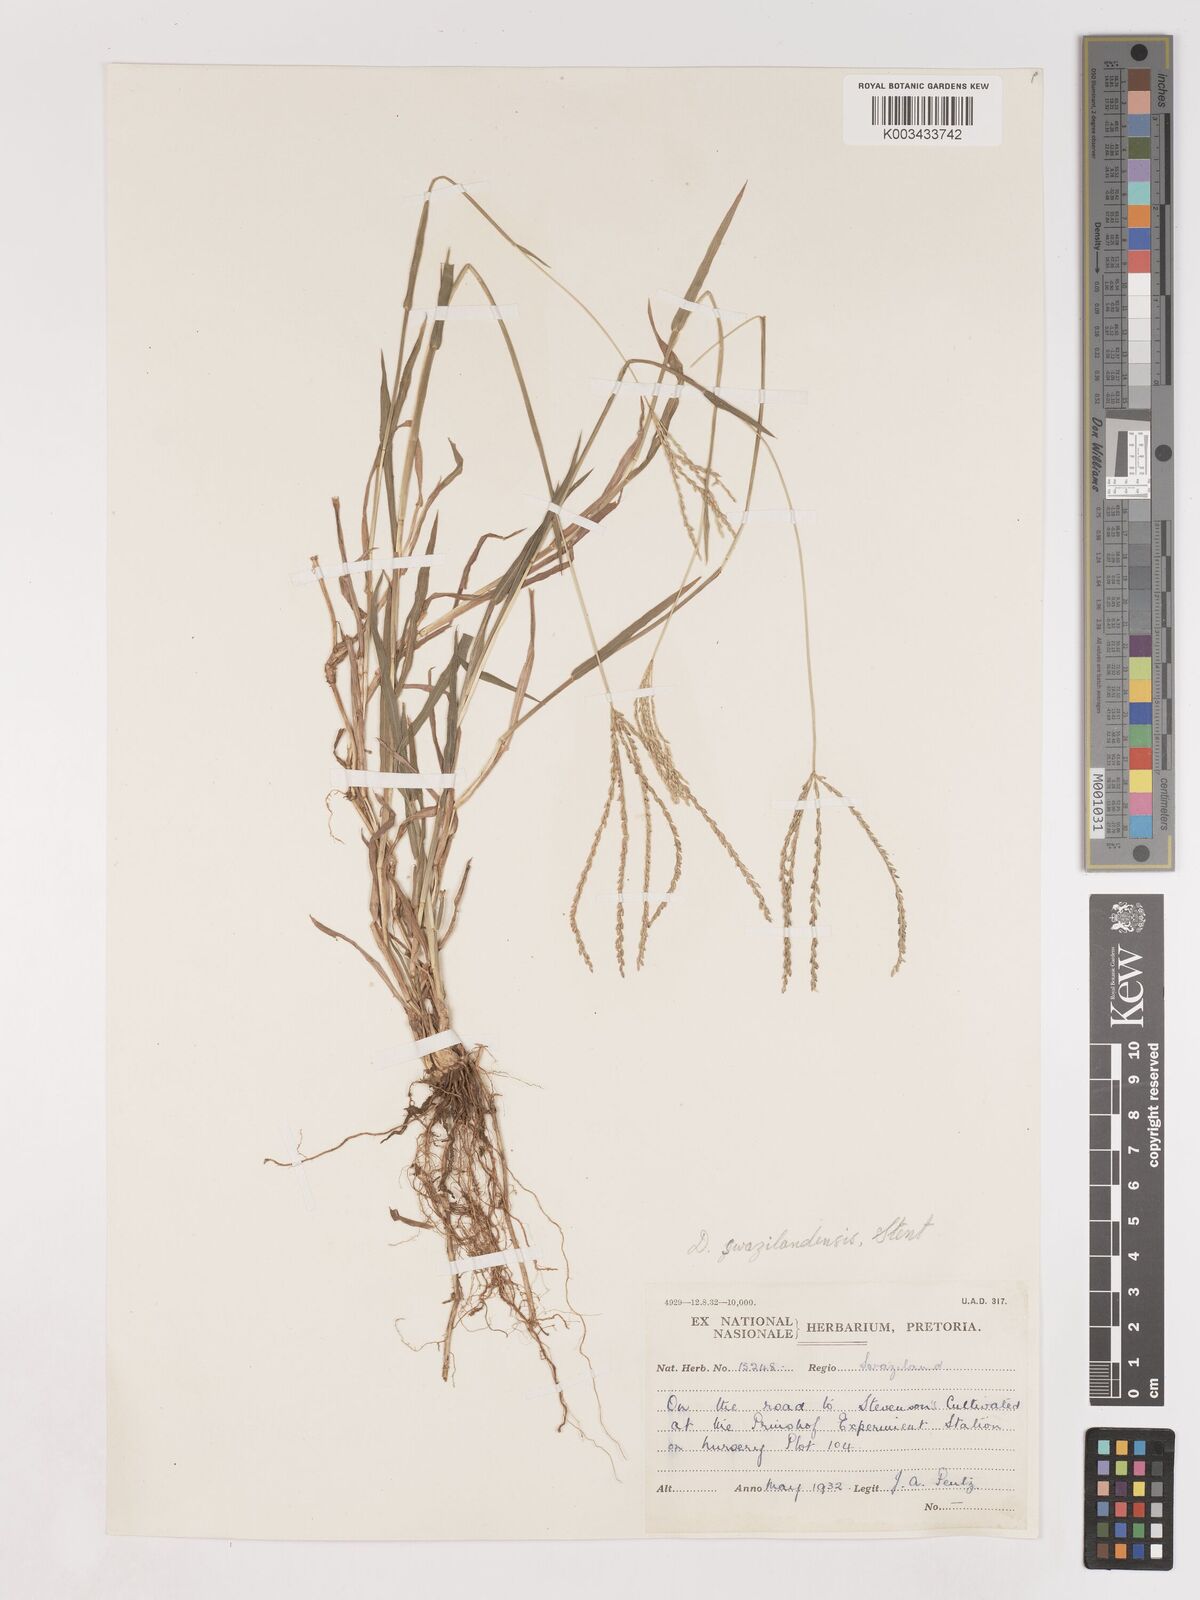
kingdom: Plantae
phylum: Tracheophyta
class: Liliopsida
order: Poales
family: Poaceae
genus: Digitaria
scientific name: Digitaria didactyla
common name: Blue couch
